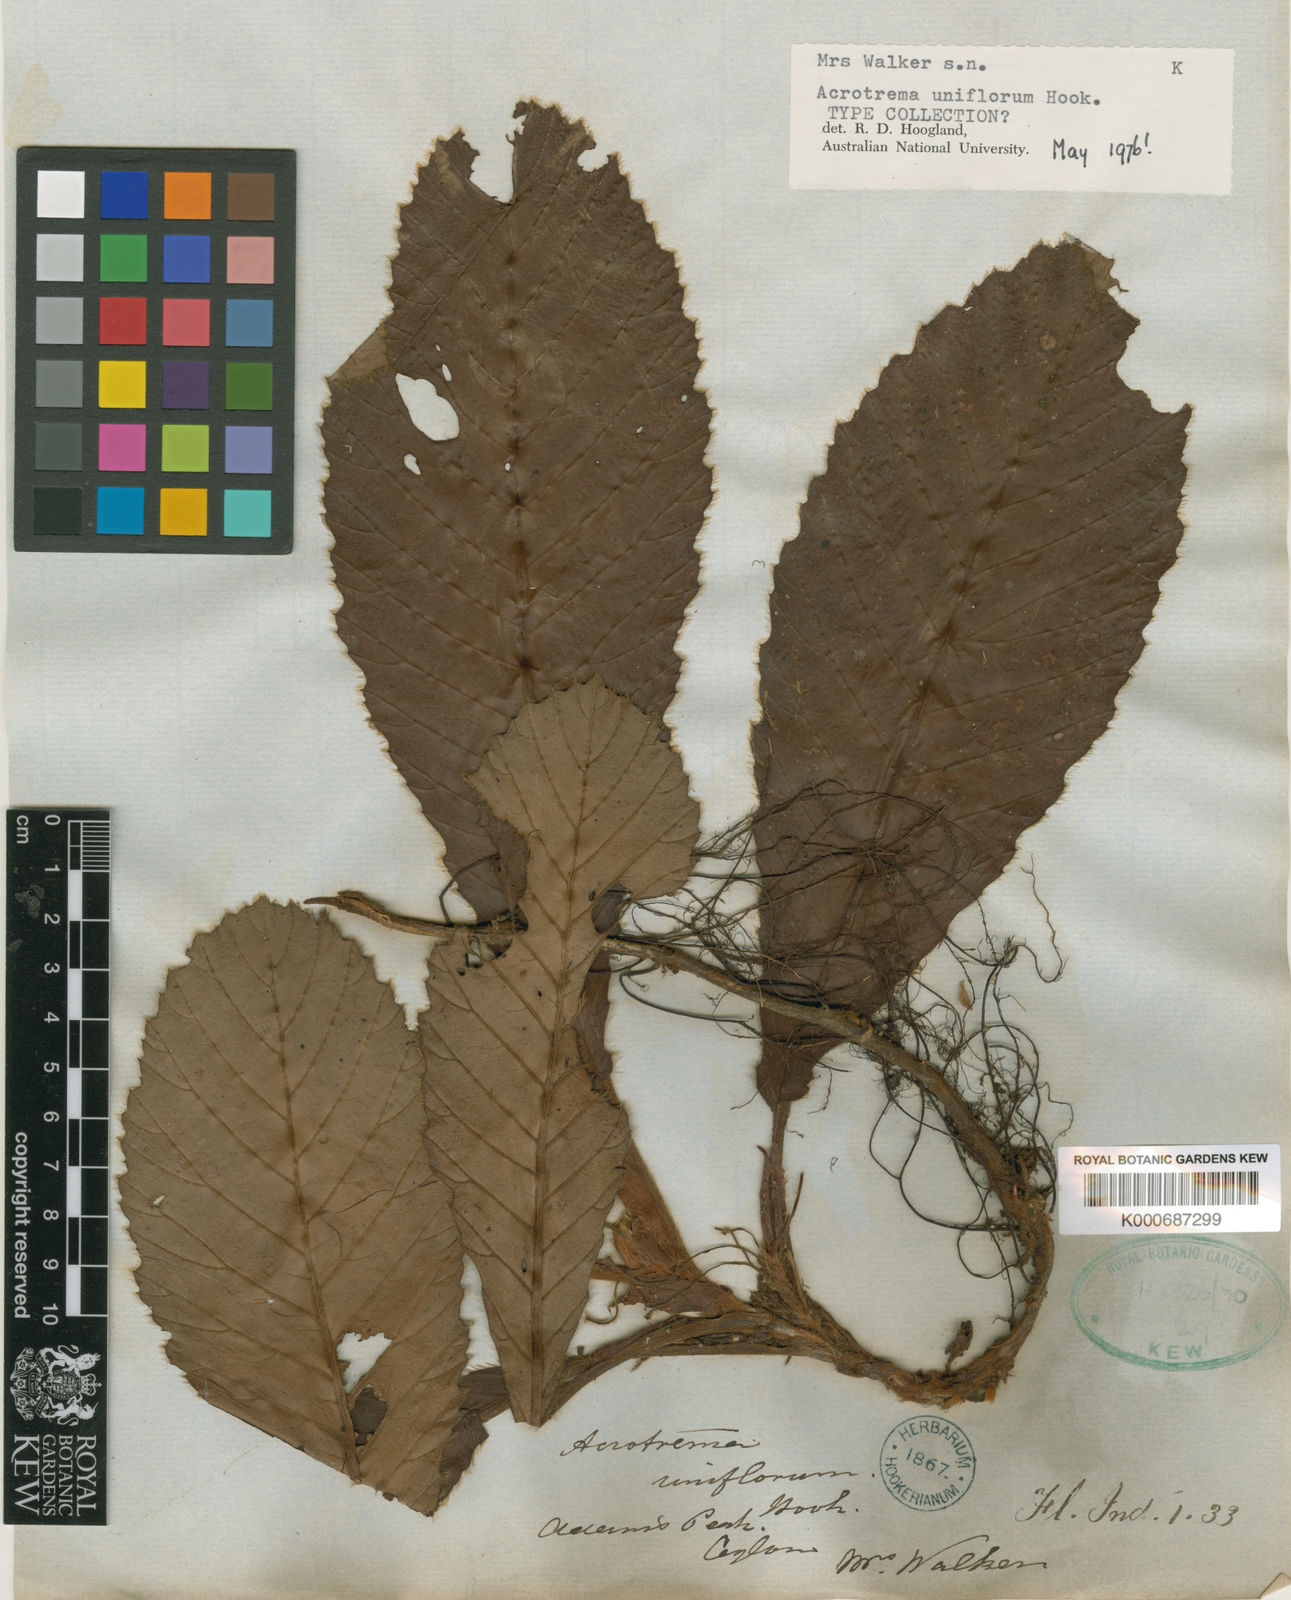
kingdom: Plantae
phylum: Tracheophyta
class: Magnoliopsida
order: Dilleniales
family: Dilleniaceae
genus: Acrotrema
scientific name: Acrotrema uniflorum
